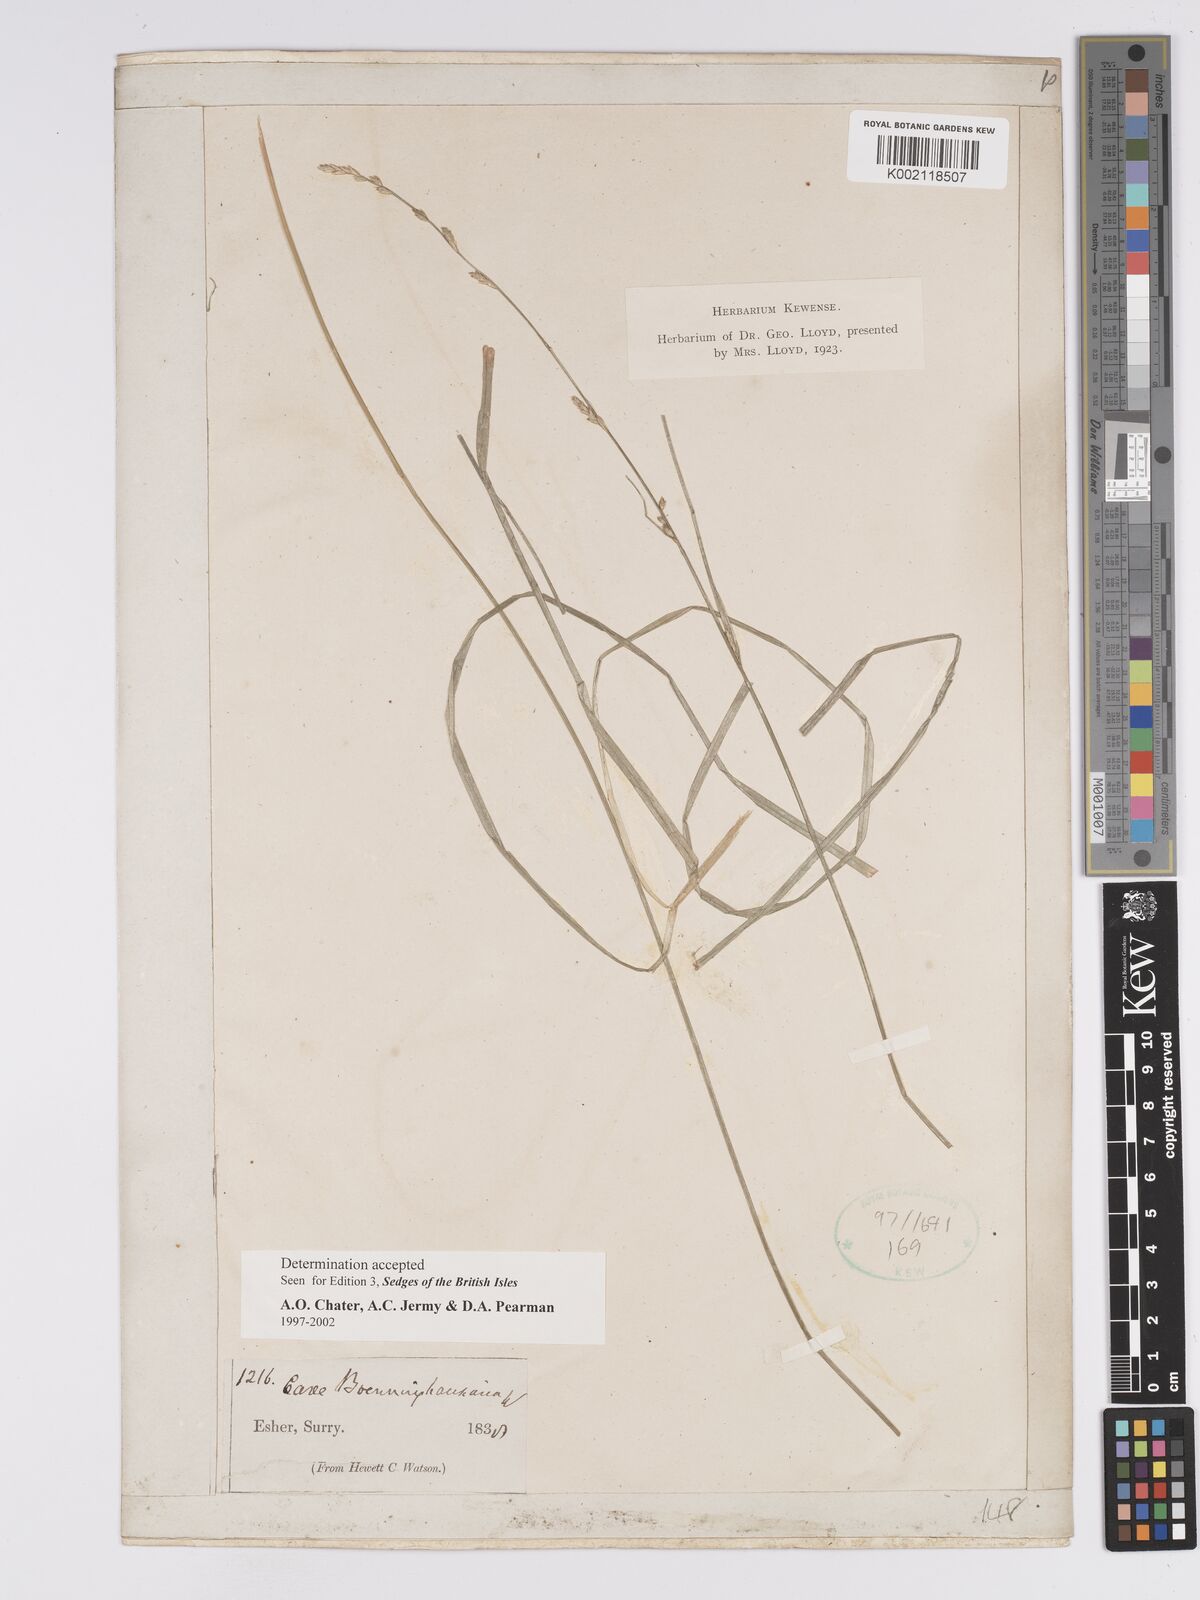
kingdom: Plantae
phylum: Tracheophyta
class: Liliopsida
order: Poales
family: Cyperaceae
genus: Carex
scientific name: Carex boenninghausiana
